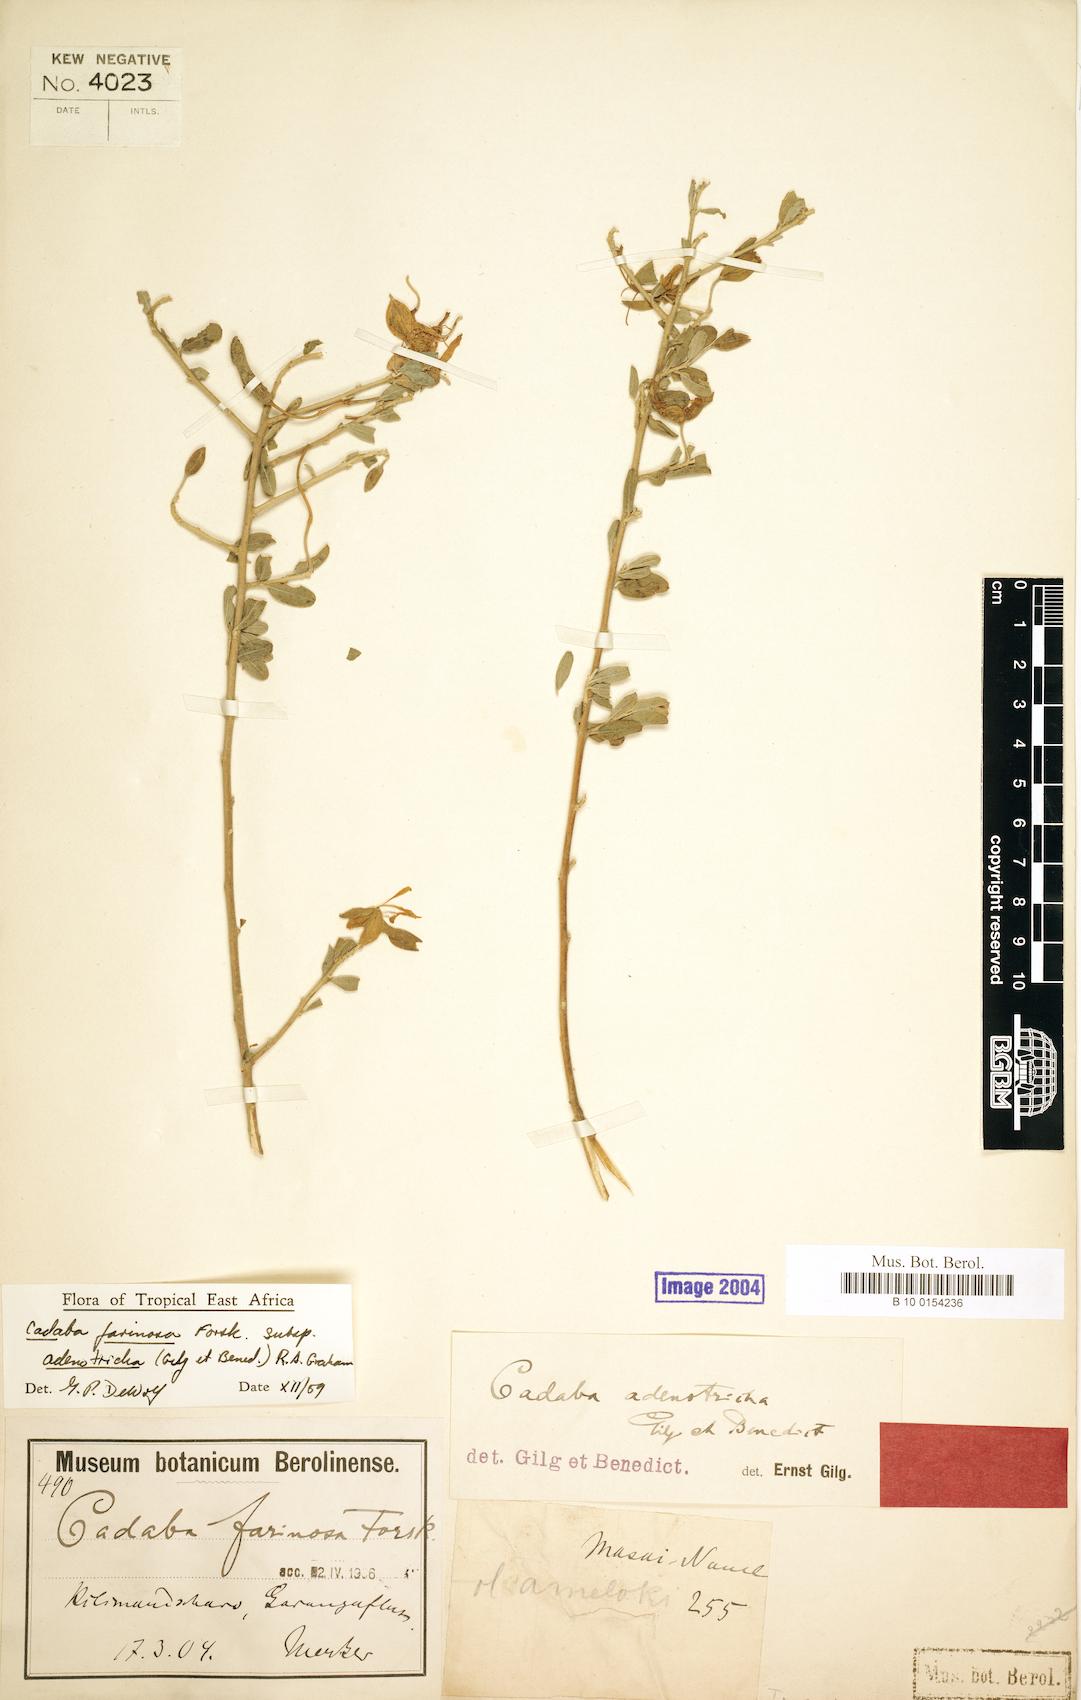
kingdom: Plantae
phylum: Tracheophyta
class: Magnoliopsida
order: Brassicales
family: Capparaceae
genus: Cadaba
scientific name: Cadaba farinosa
